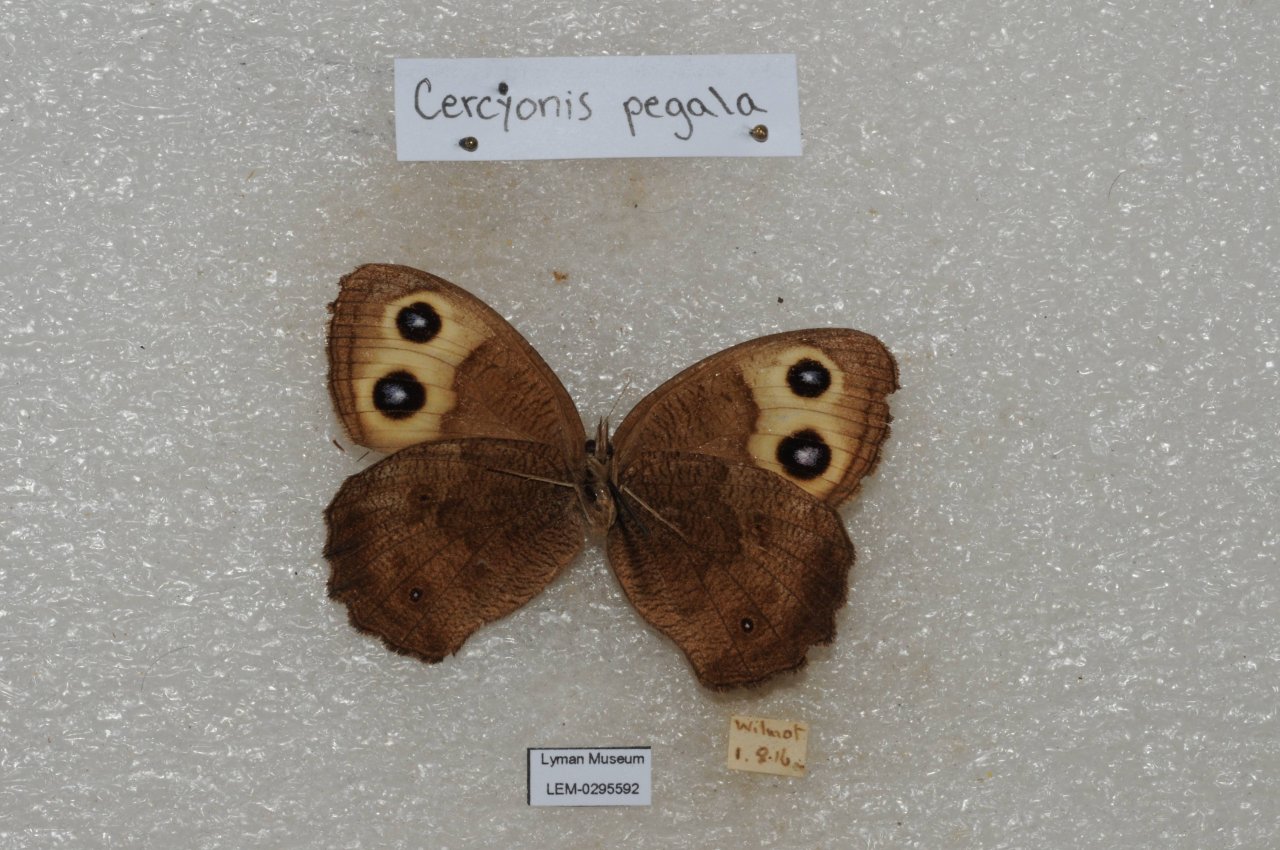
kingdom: Animalia
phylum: Arthropoda
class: Insecta
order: Lepidoptera
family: Nymphalidae
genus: Cercyonis
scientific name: Cercyonis pegala
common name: Common Wood-Nymph
